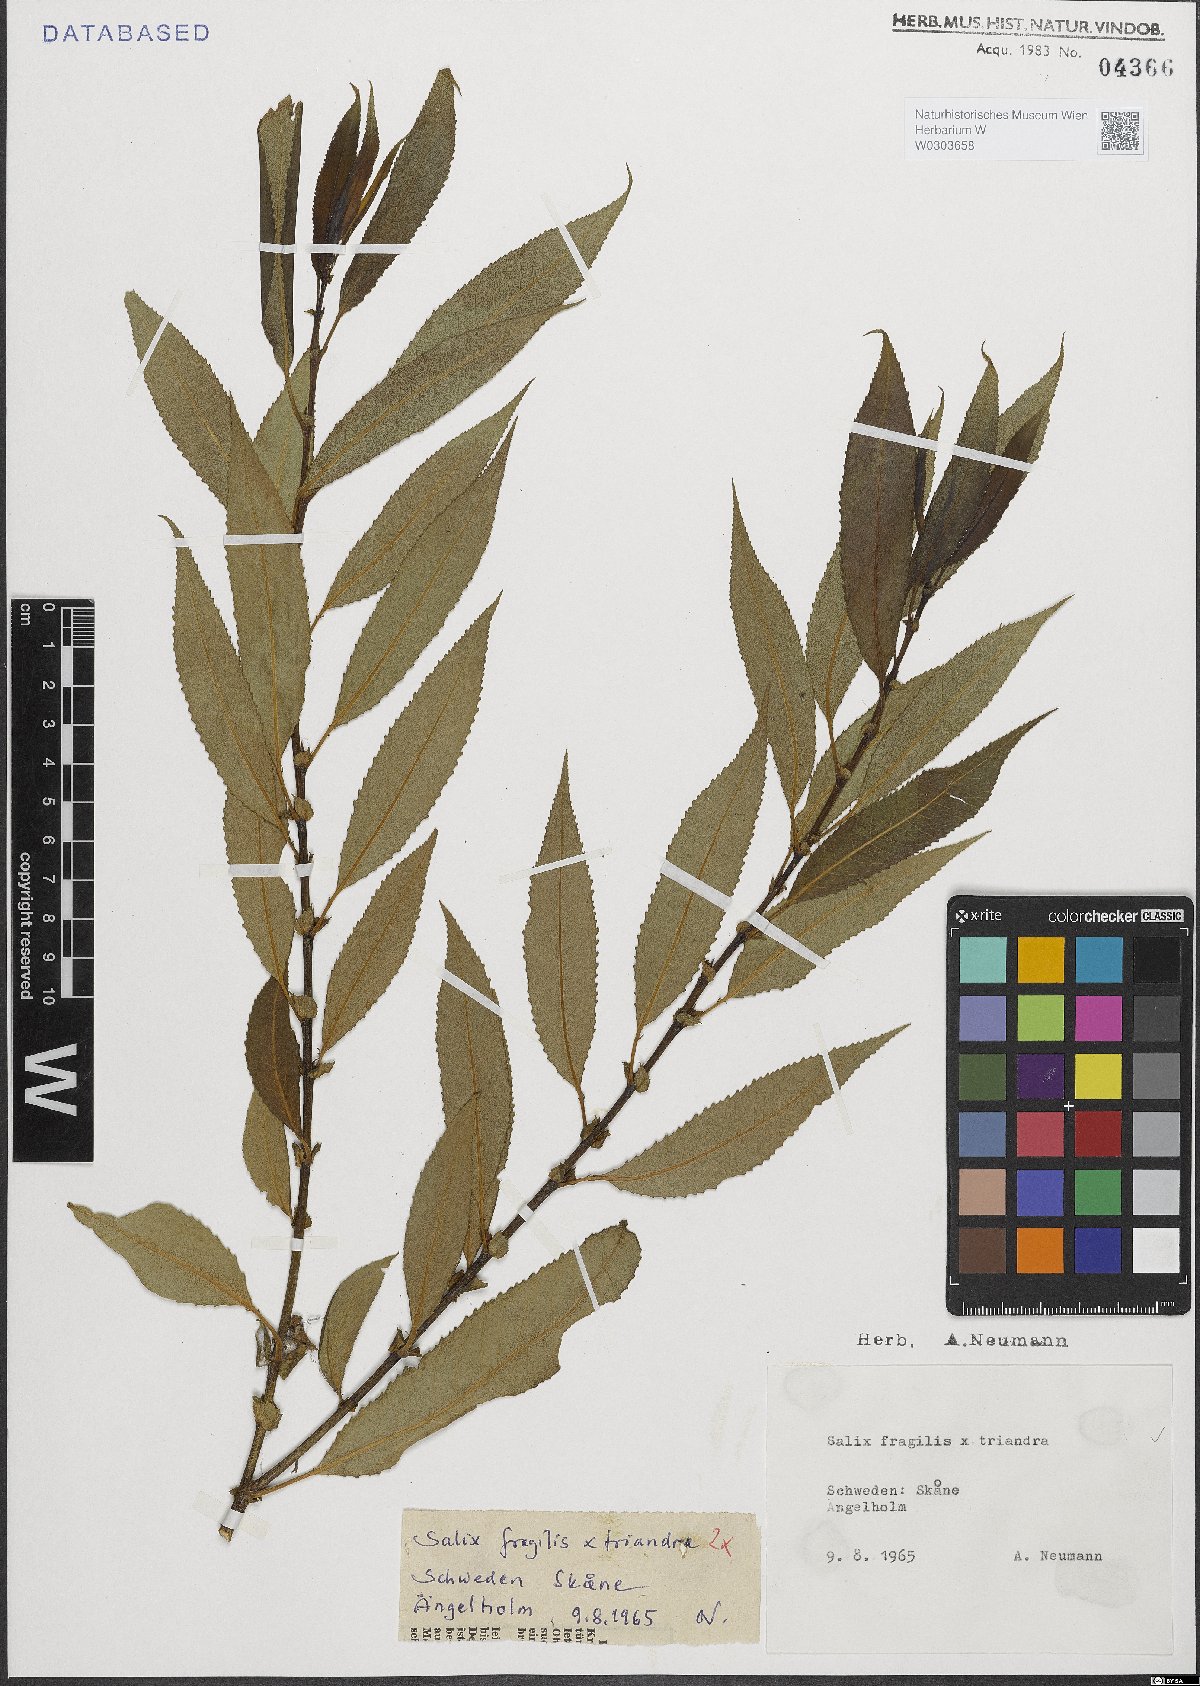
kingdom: Plantae
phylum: Tracheophyta
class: Magnoliopsida
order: Malpighiales
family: Salicaceae
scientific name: Salicaceae
